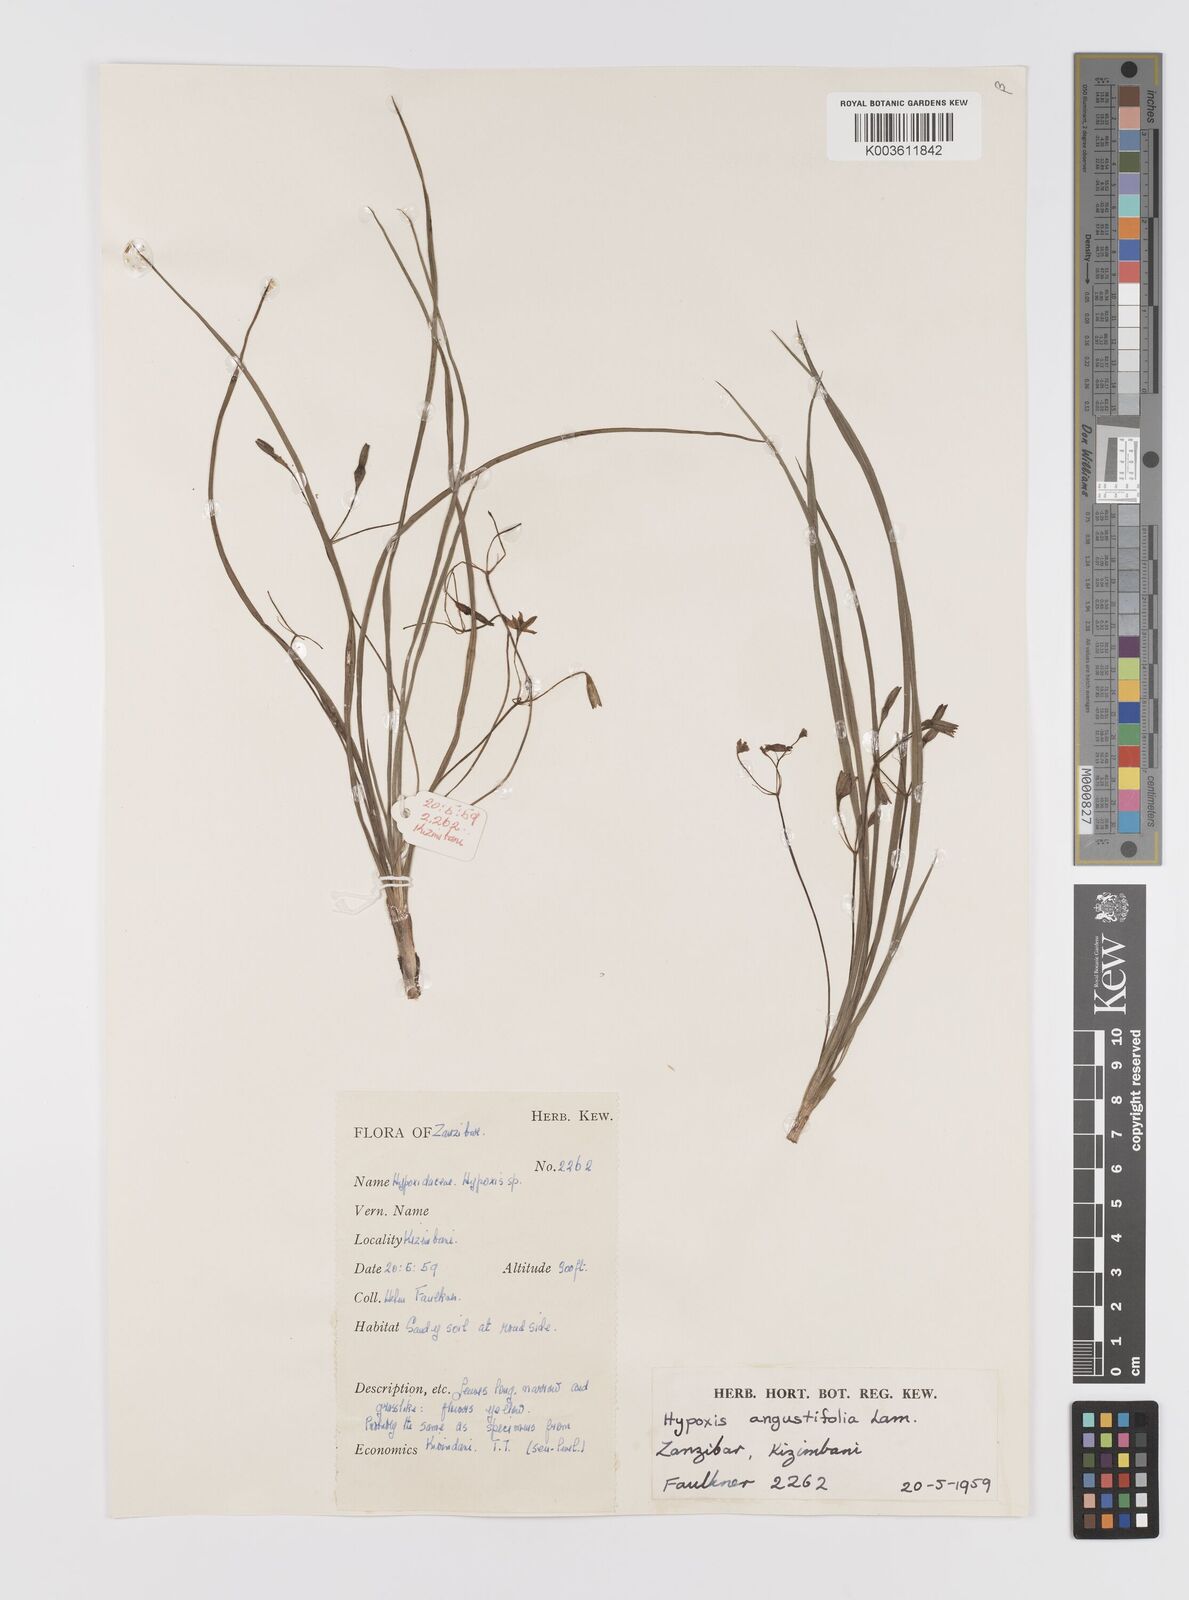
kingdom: Plantae
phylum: Tracheophyta
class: Liliopsida
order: Asparagales
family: Hypoxidaceae
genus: Hypoxis
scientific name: Hypoxis angustifolia
